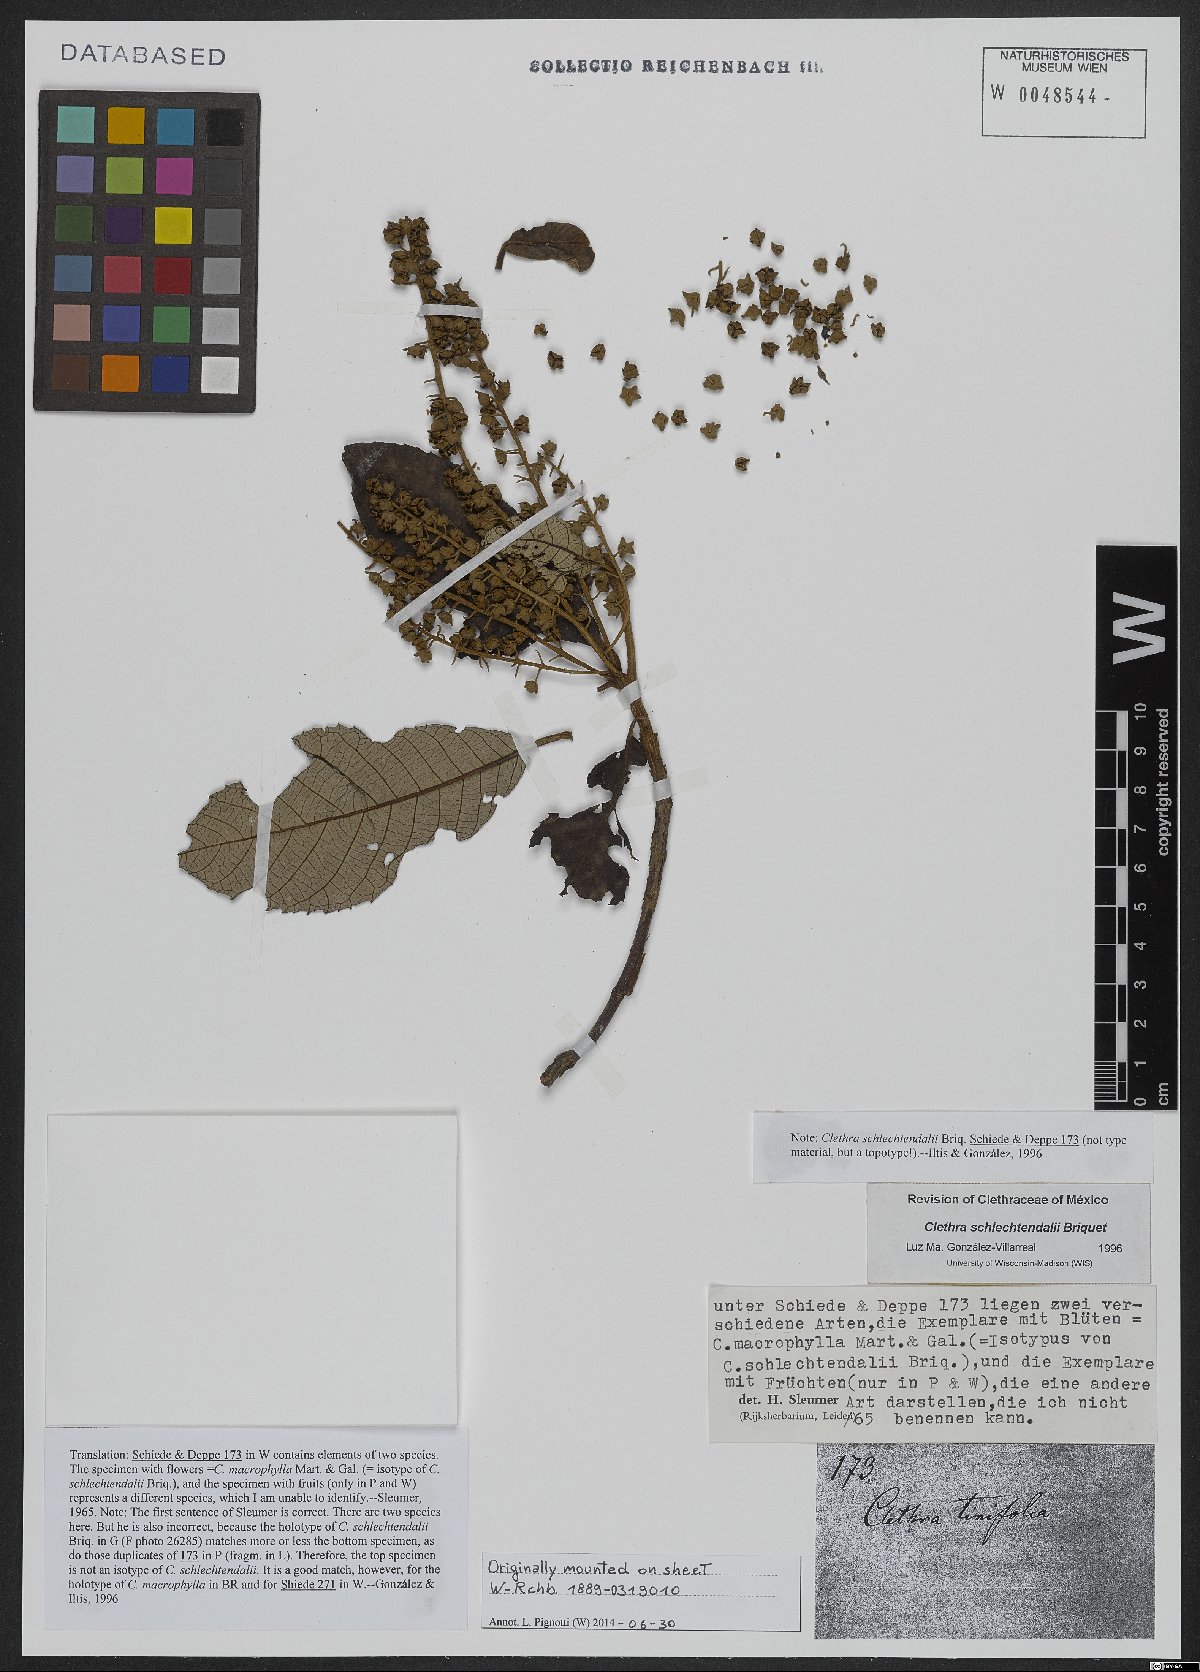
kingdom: Plantae
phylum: Tracheophyta
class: Magnoliopsida
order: Ericales
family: Clethraceae
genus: Clethra
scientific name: Clethra macrophylla
